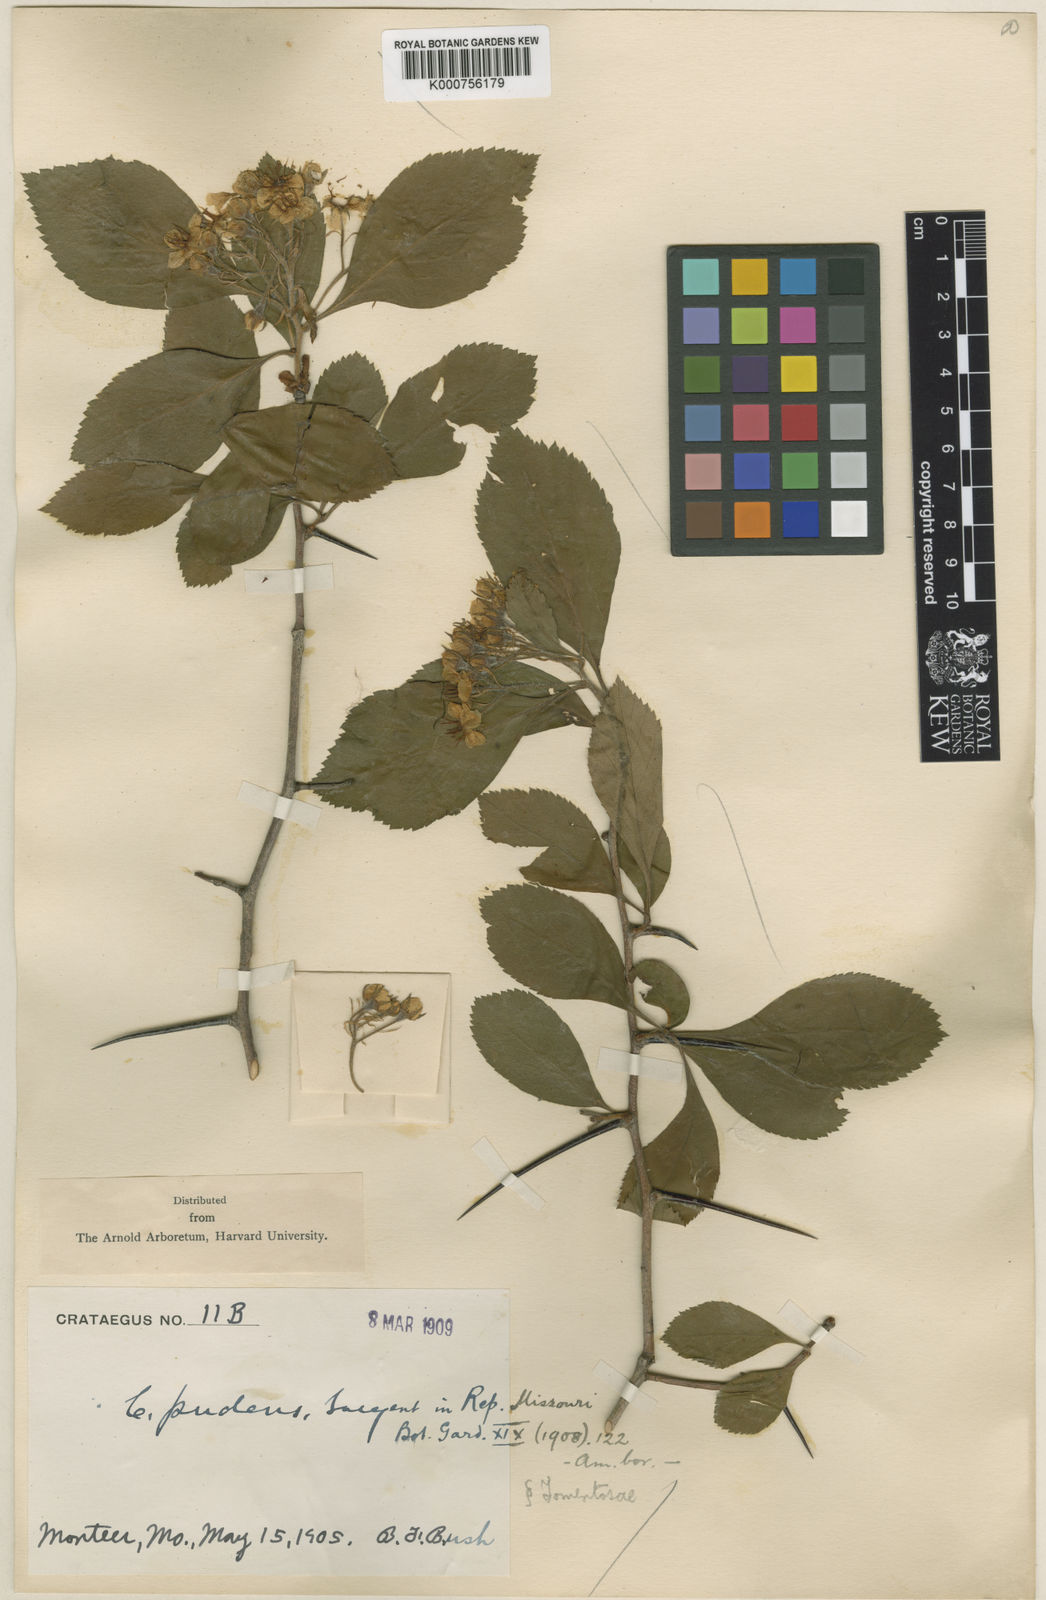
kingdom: Plantae
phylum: Tracheophyta
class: Magnoliopsida
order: Rosales
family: Rosaceae
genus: Crataegus
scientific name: Crataegus pudens
